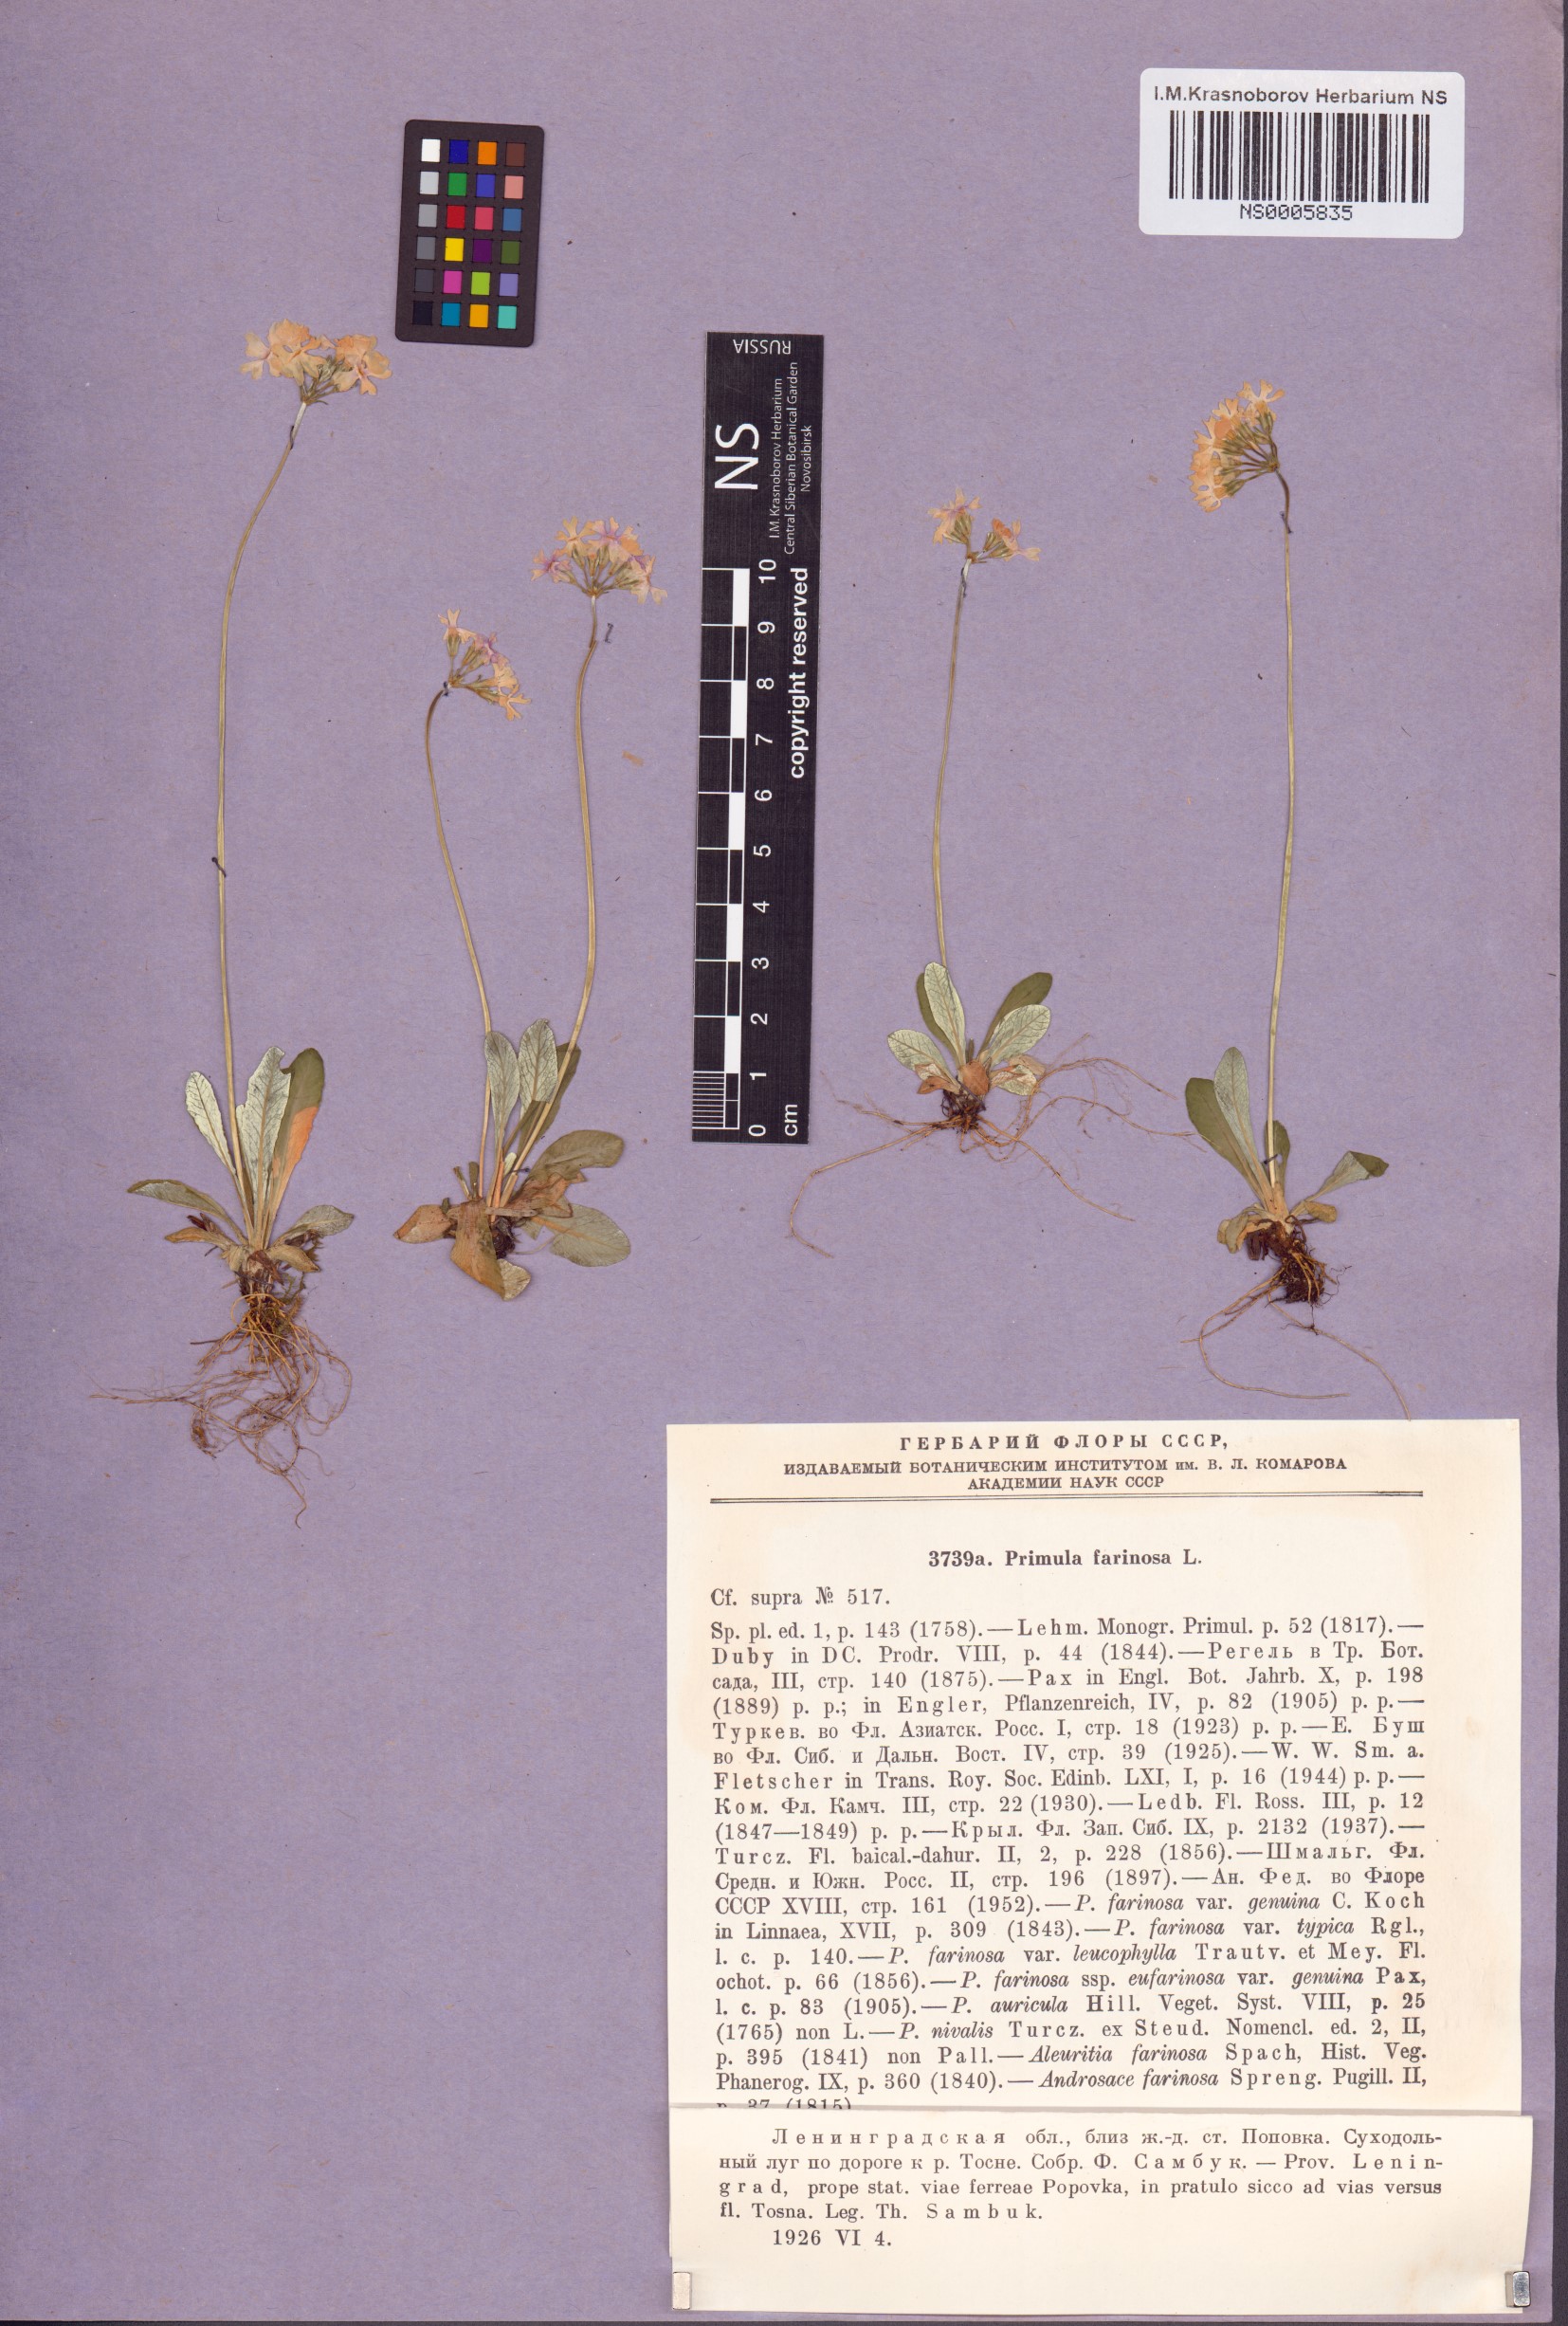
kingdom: Plantae
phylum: Tracheophyta
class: Magnoliopsida
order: Ericales
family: Primulaceae
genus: Primula
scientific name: Primula farinosa
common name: Bird's-eye primrose
